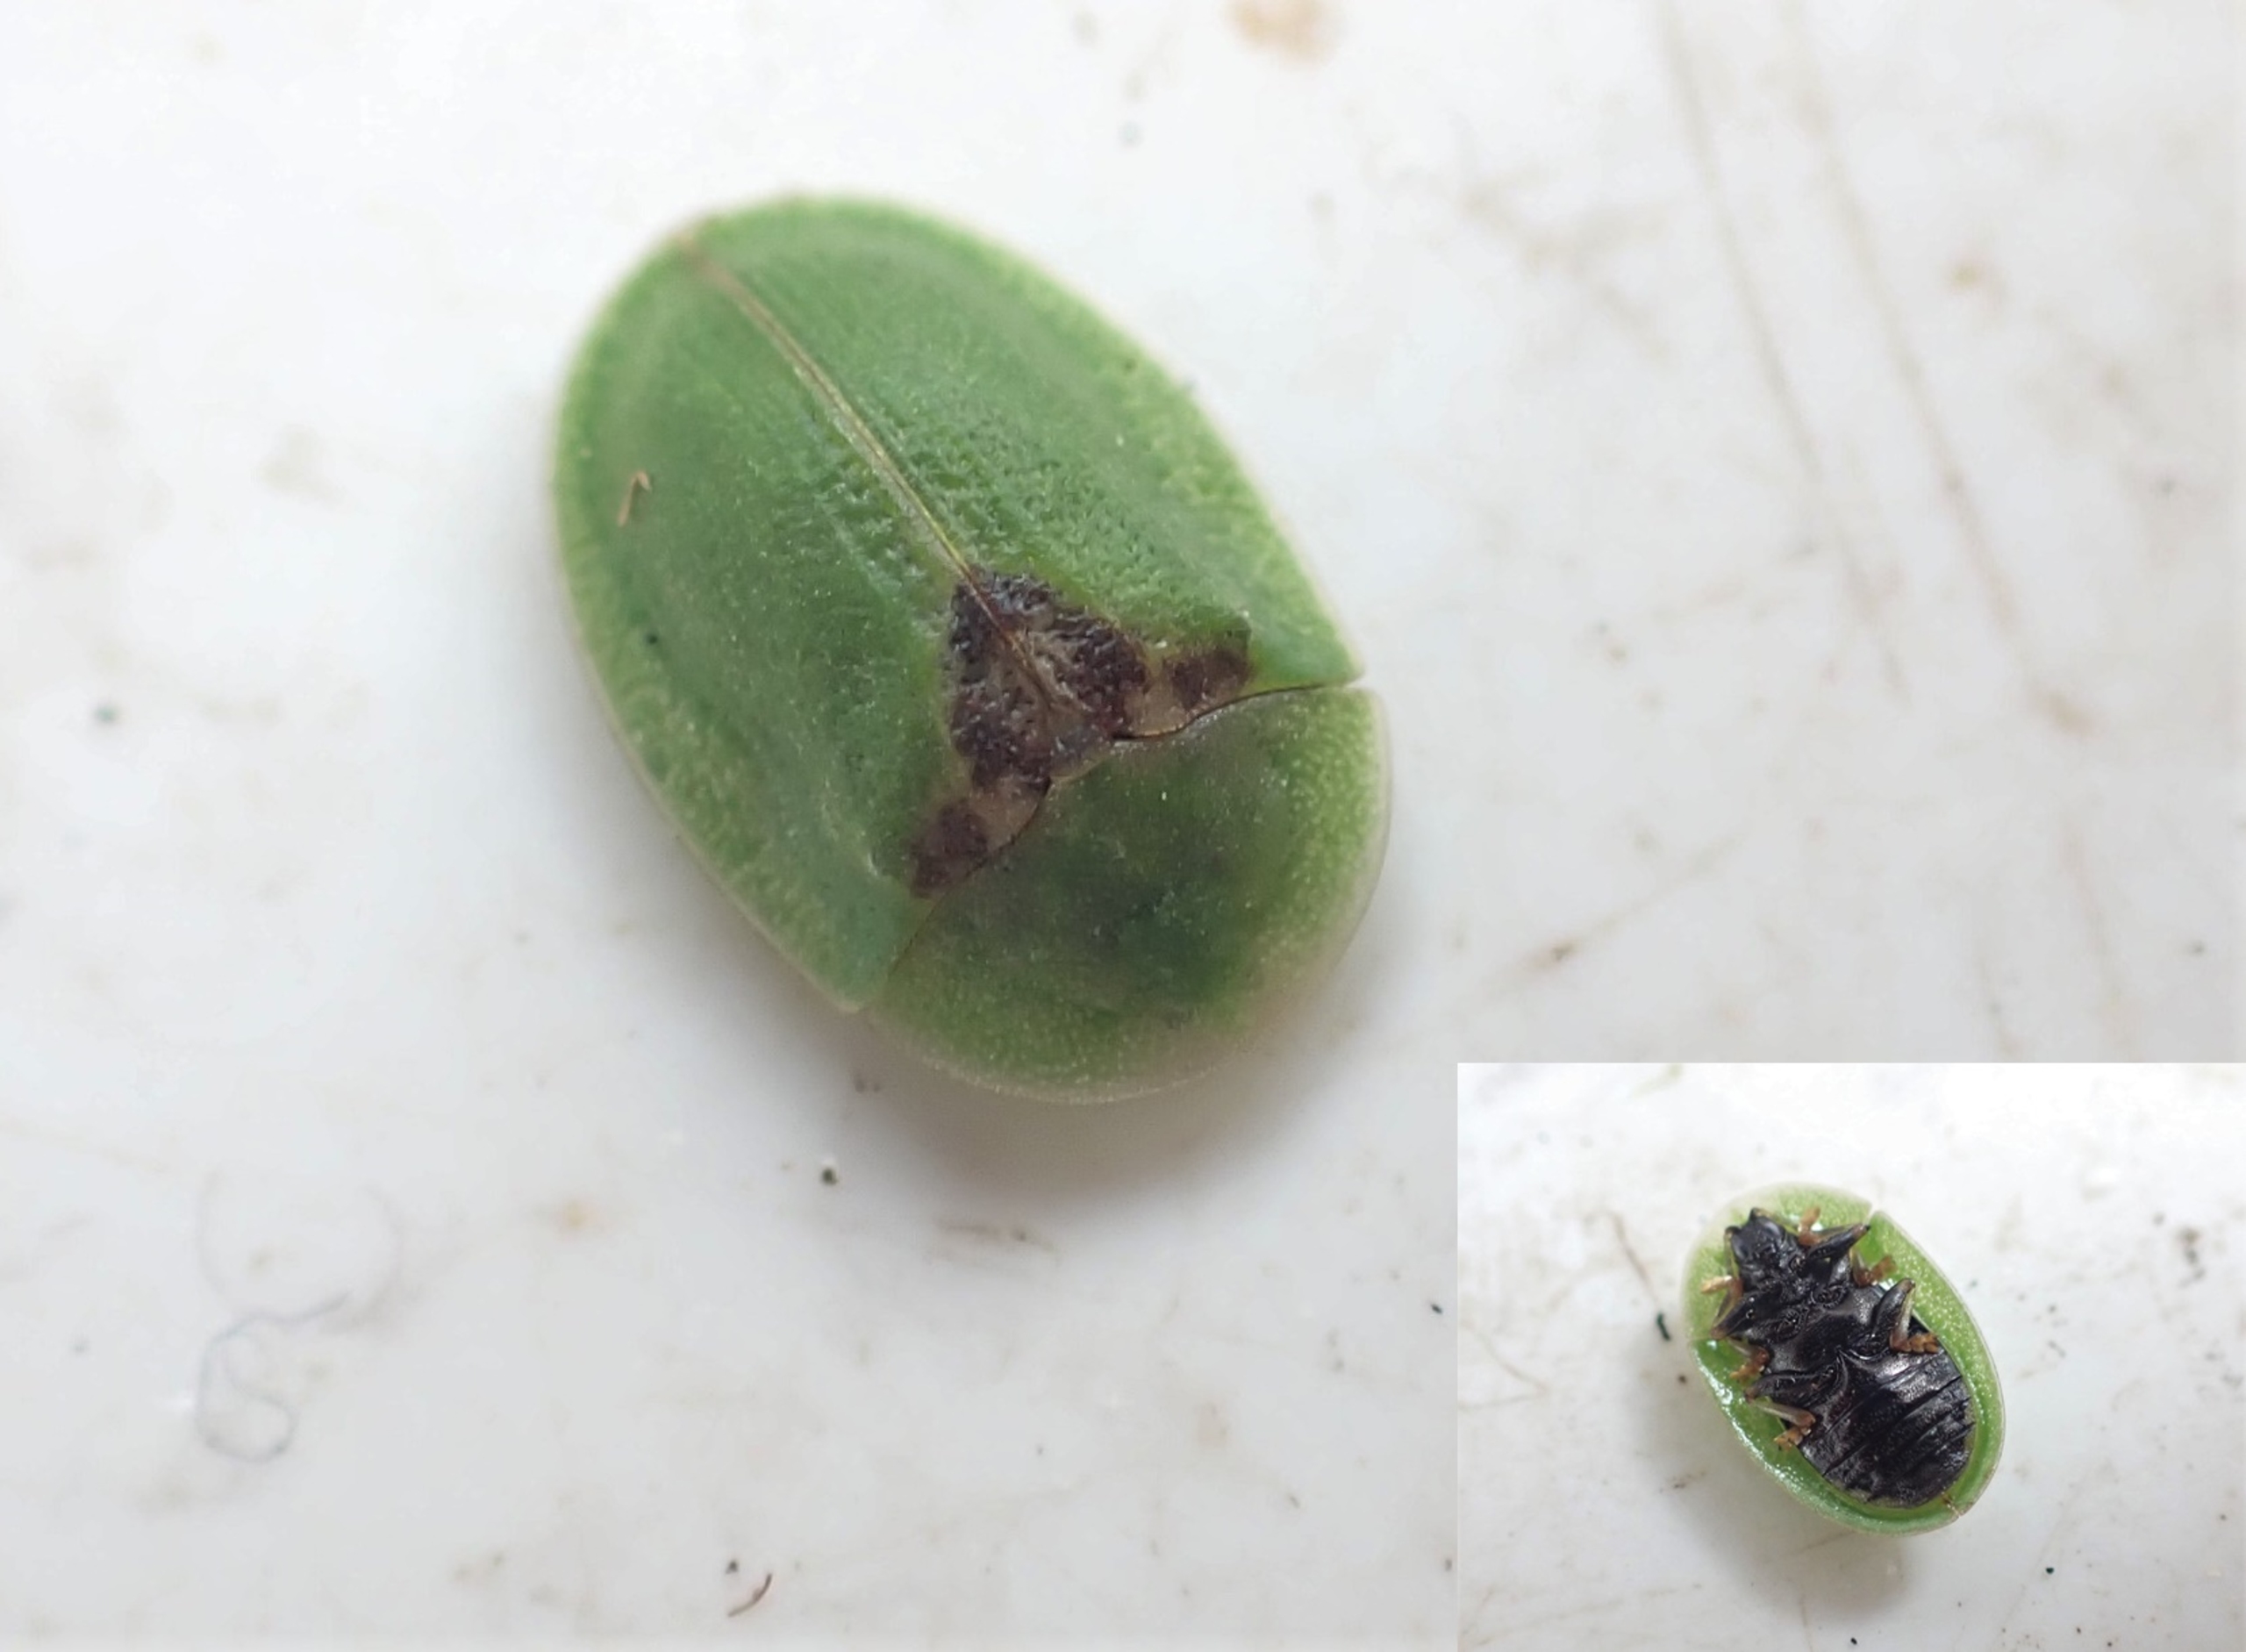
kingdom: Animalia
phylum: Arthropoda
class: Insecta
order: Coleoptera
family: Chrysomelidae
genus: Cassida
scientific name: Cassida rubiginosa
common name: Tidselskjoldbille
